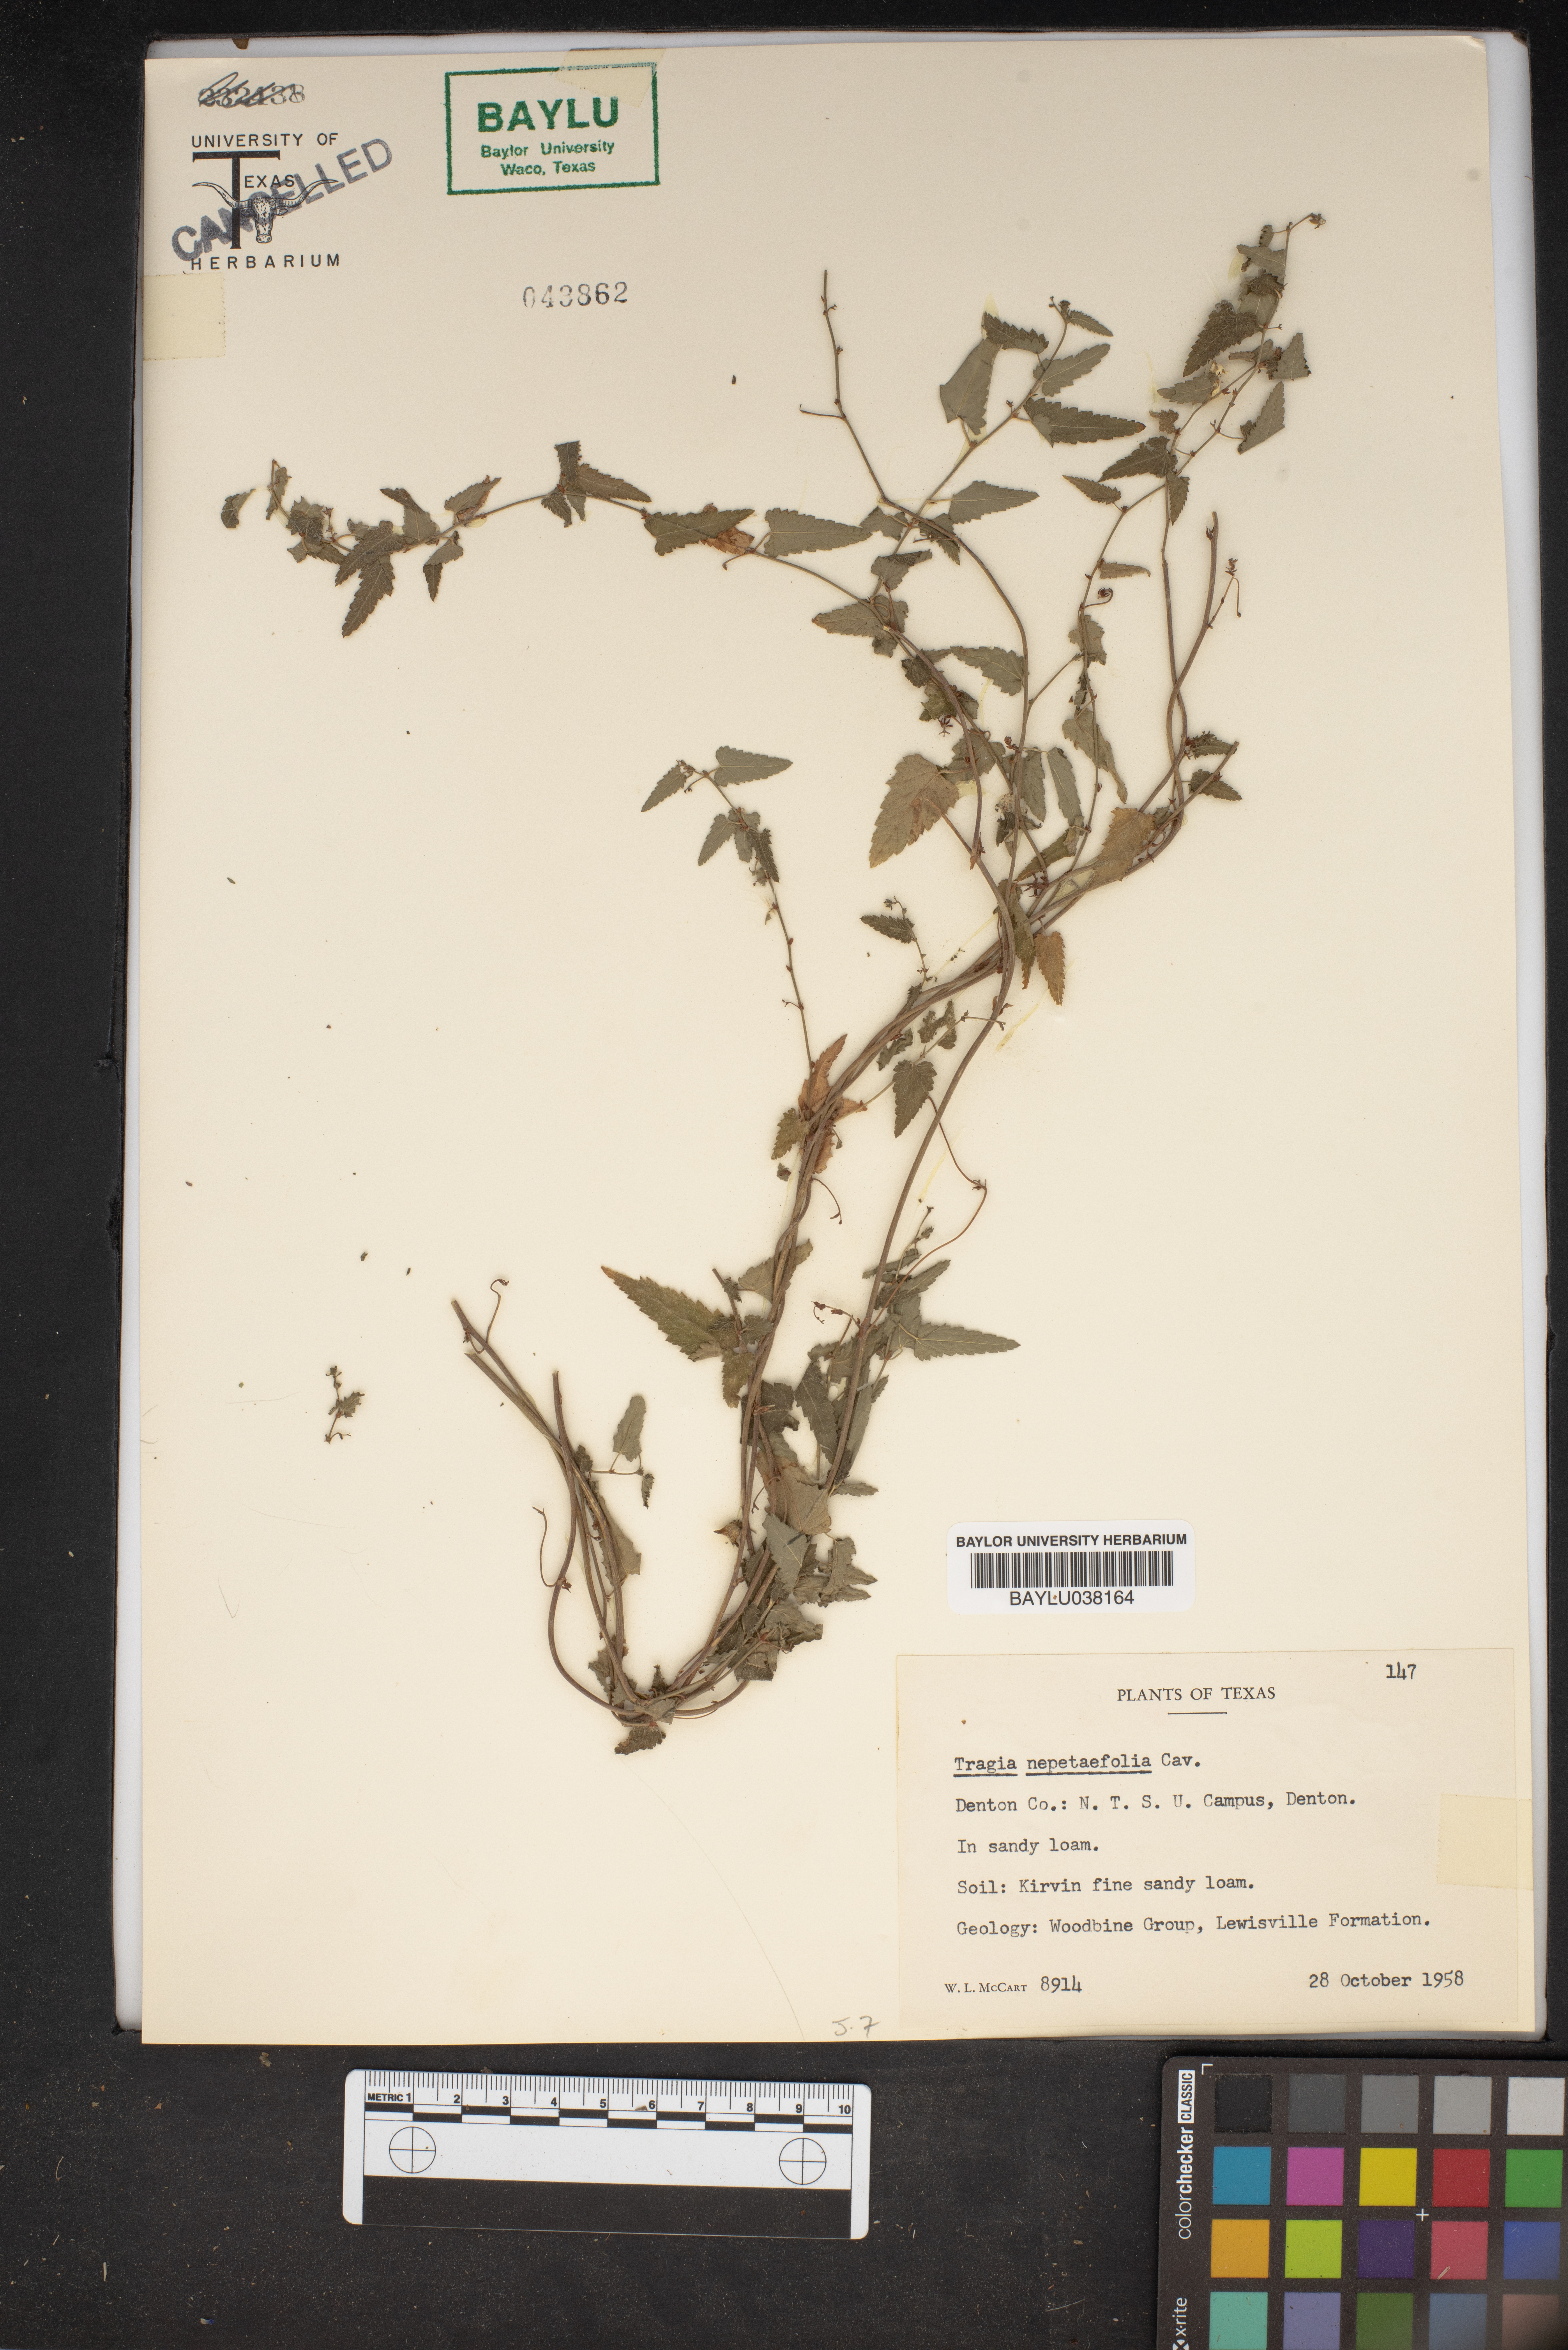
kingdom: Plantae
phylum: Tracheophyta
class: Magnoliopsida
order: Malpighiales
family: Euphorbiaceae
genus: Tragia
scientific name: Tragia bahiensis
